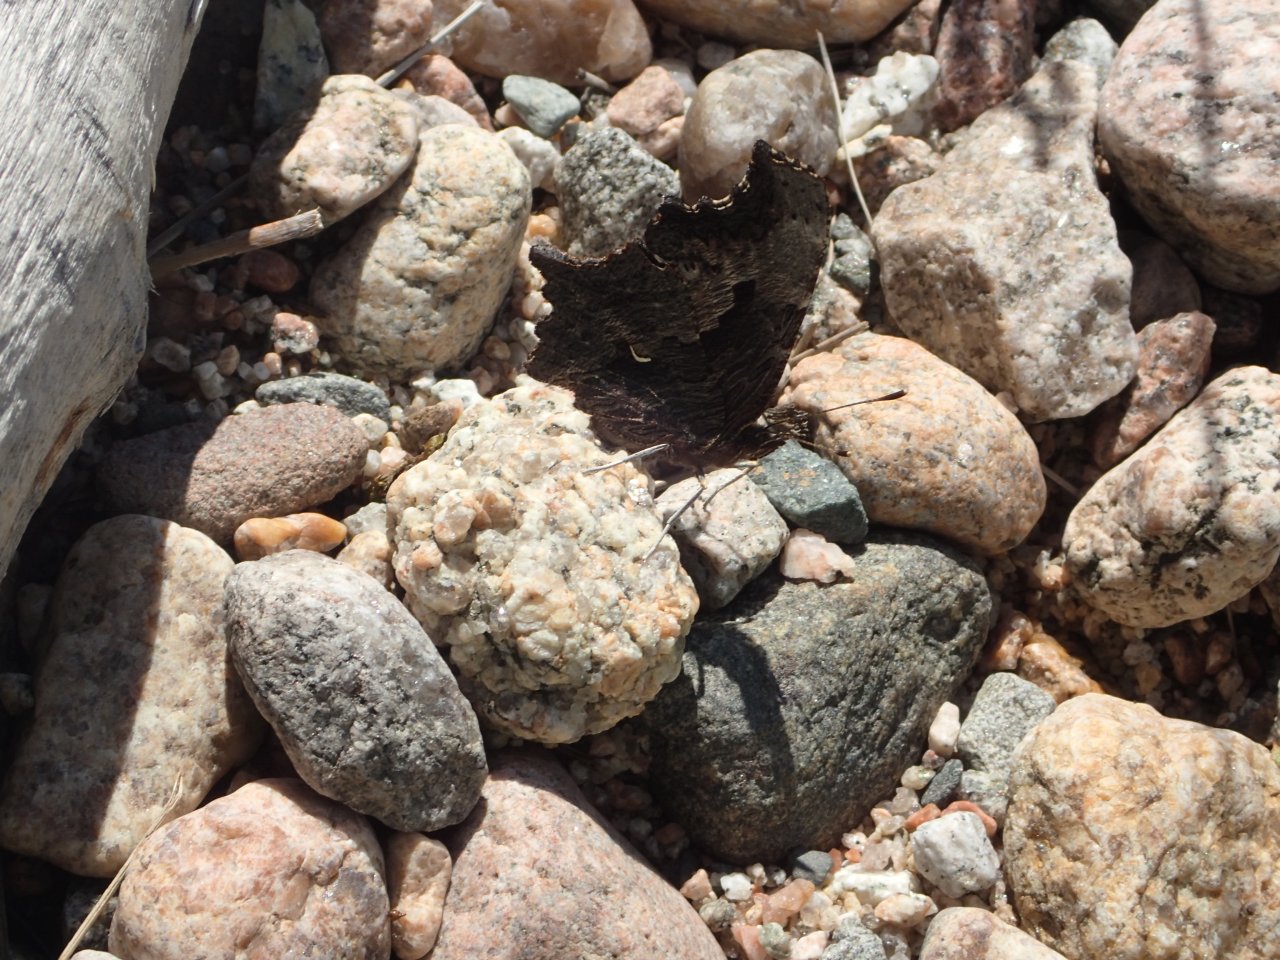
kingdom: Animalia
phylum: Arthropoda
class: Insecta
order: Lepidoptera
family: Nymphalidae
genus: Polygonia
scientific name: Polygonia progne
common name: Gray Comma
